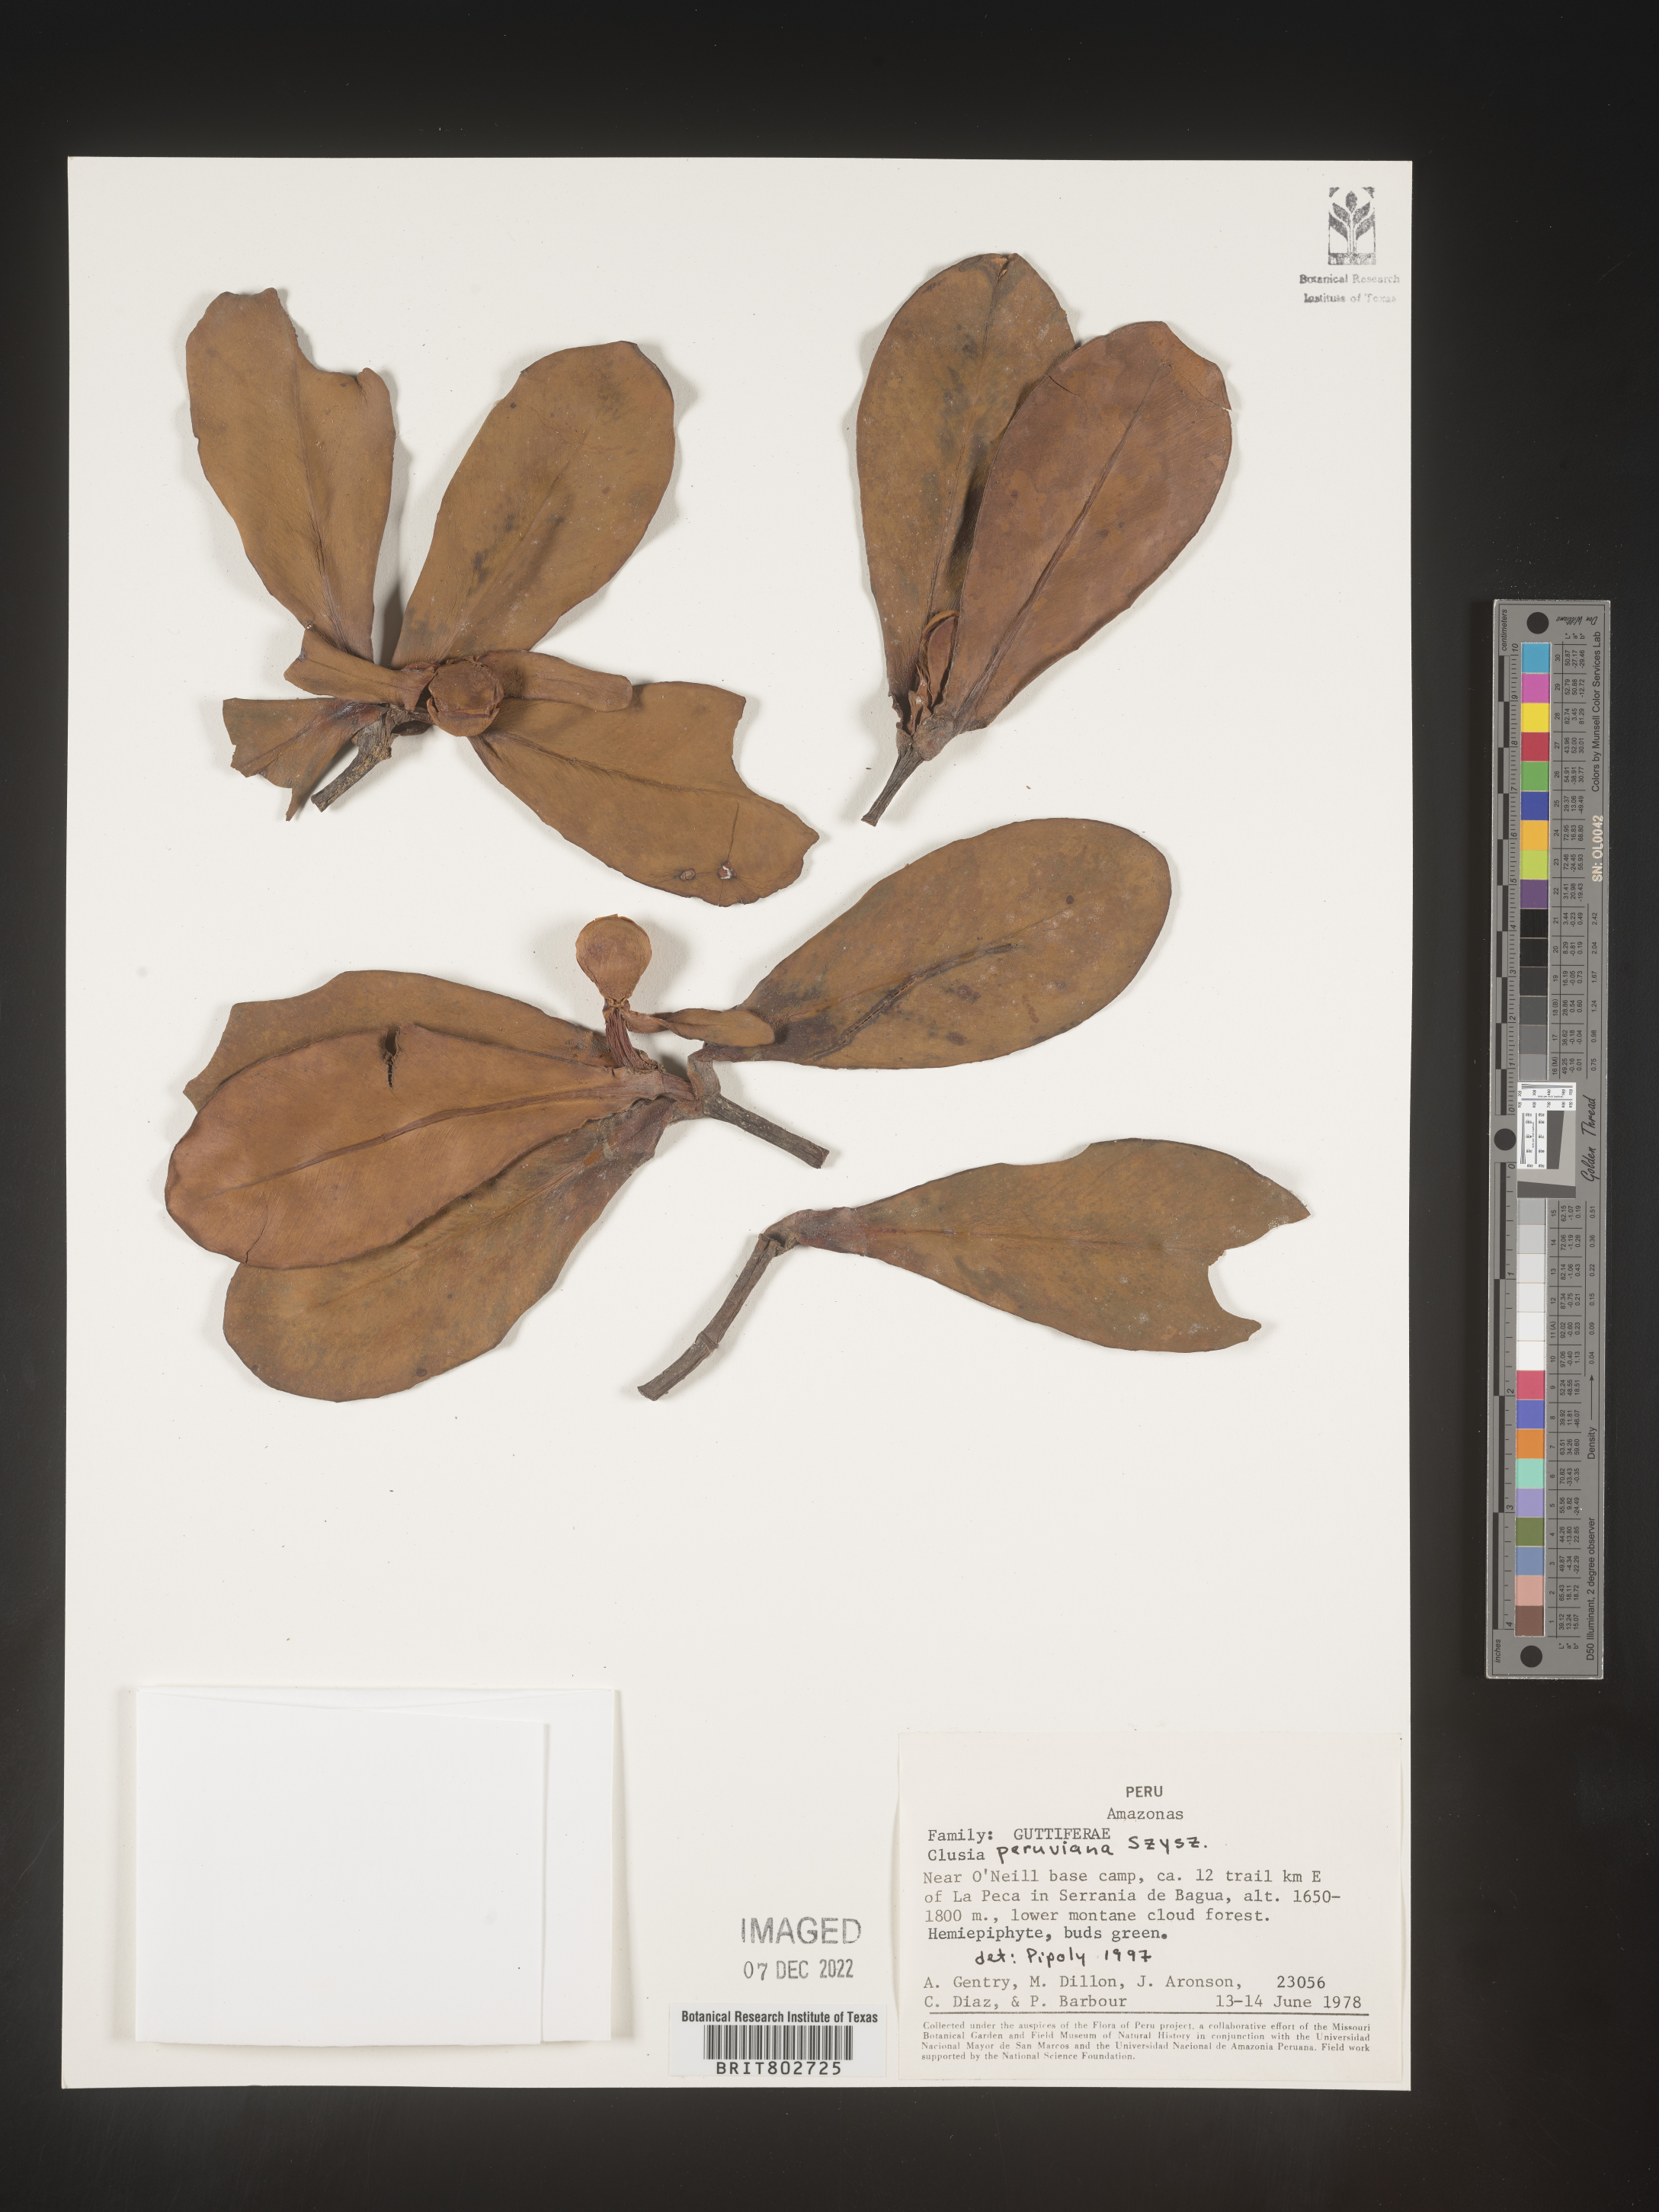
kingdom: Plantae
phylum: Tracheophyta
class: Magnoliopsida
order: Malpighiales
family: Clusiaceae
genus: Clusia
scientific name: Clusia
